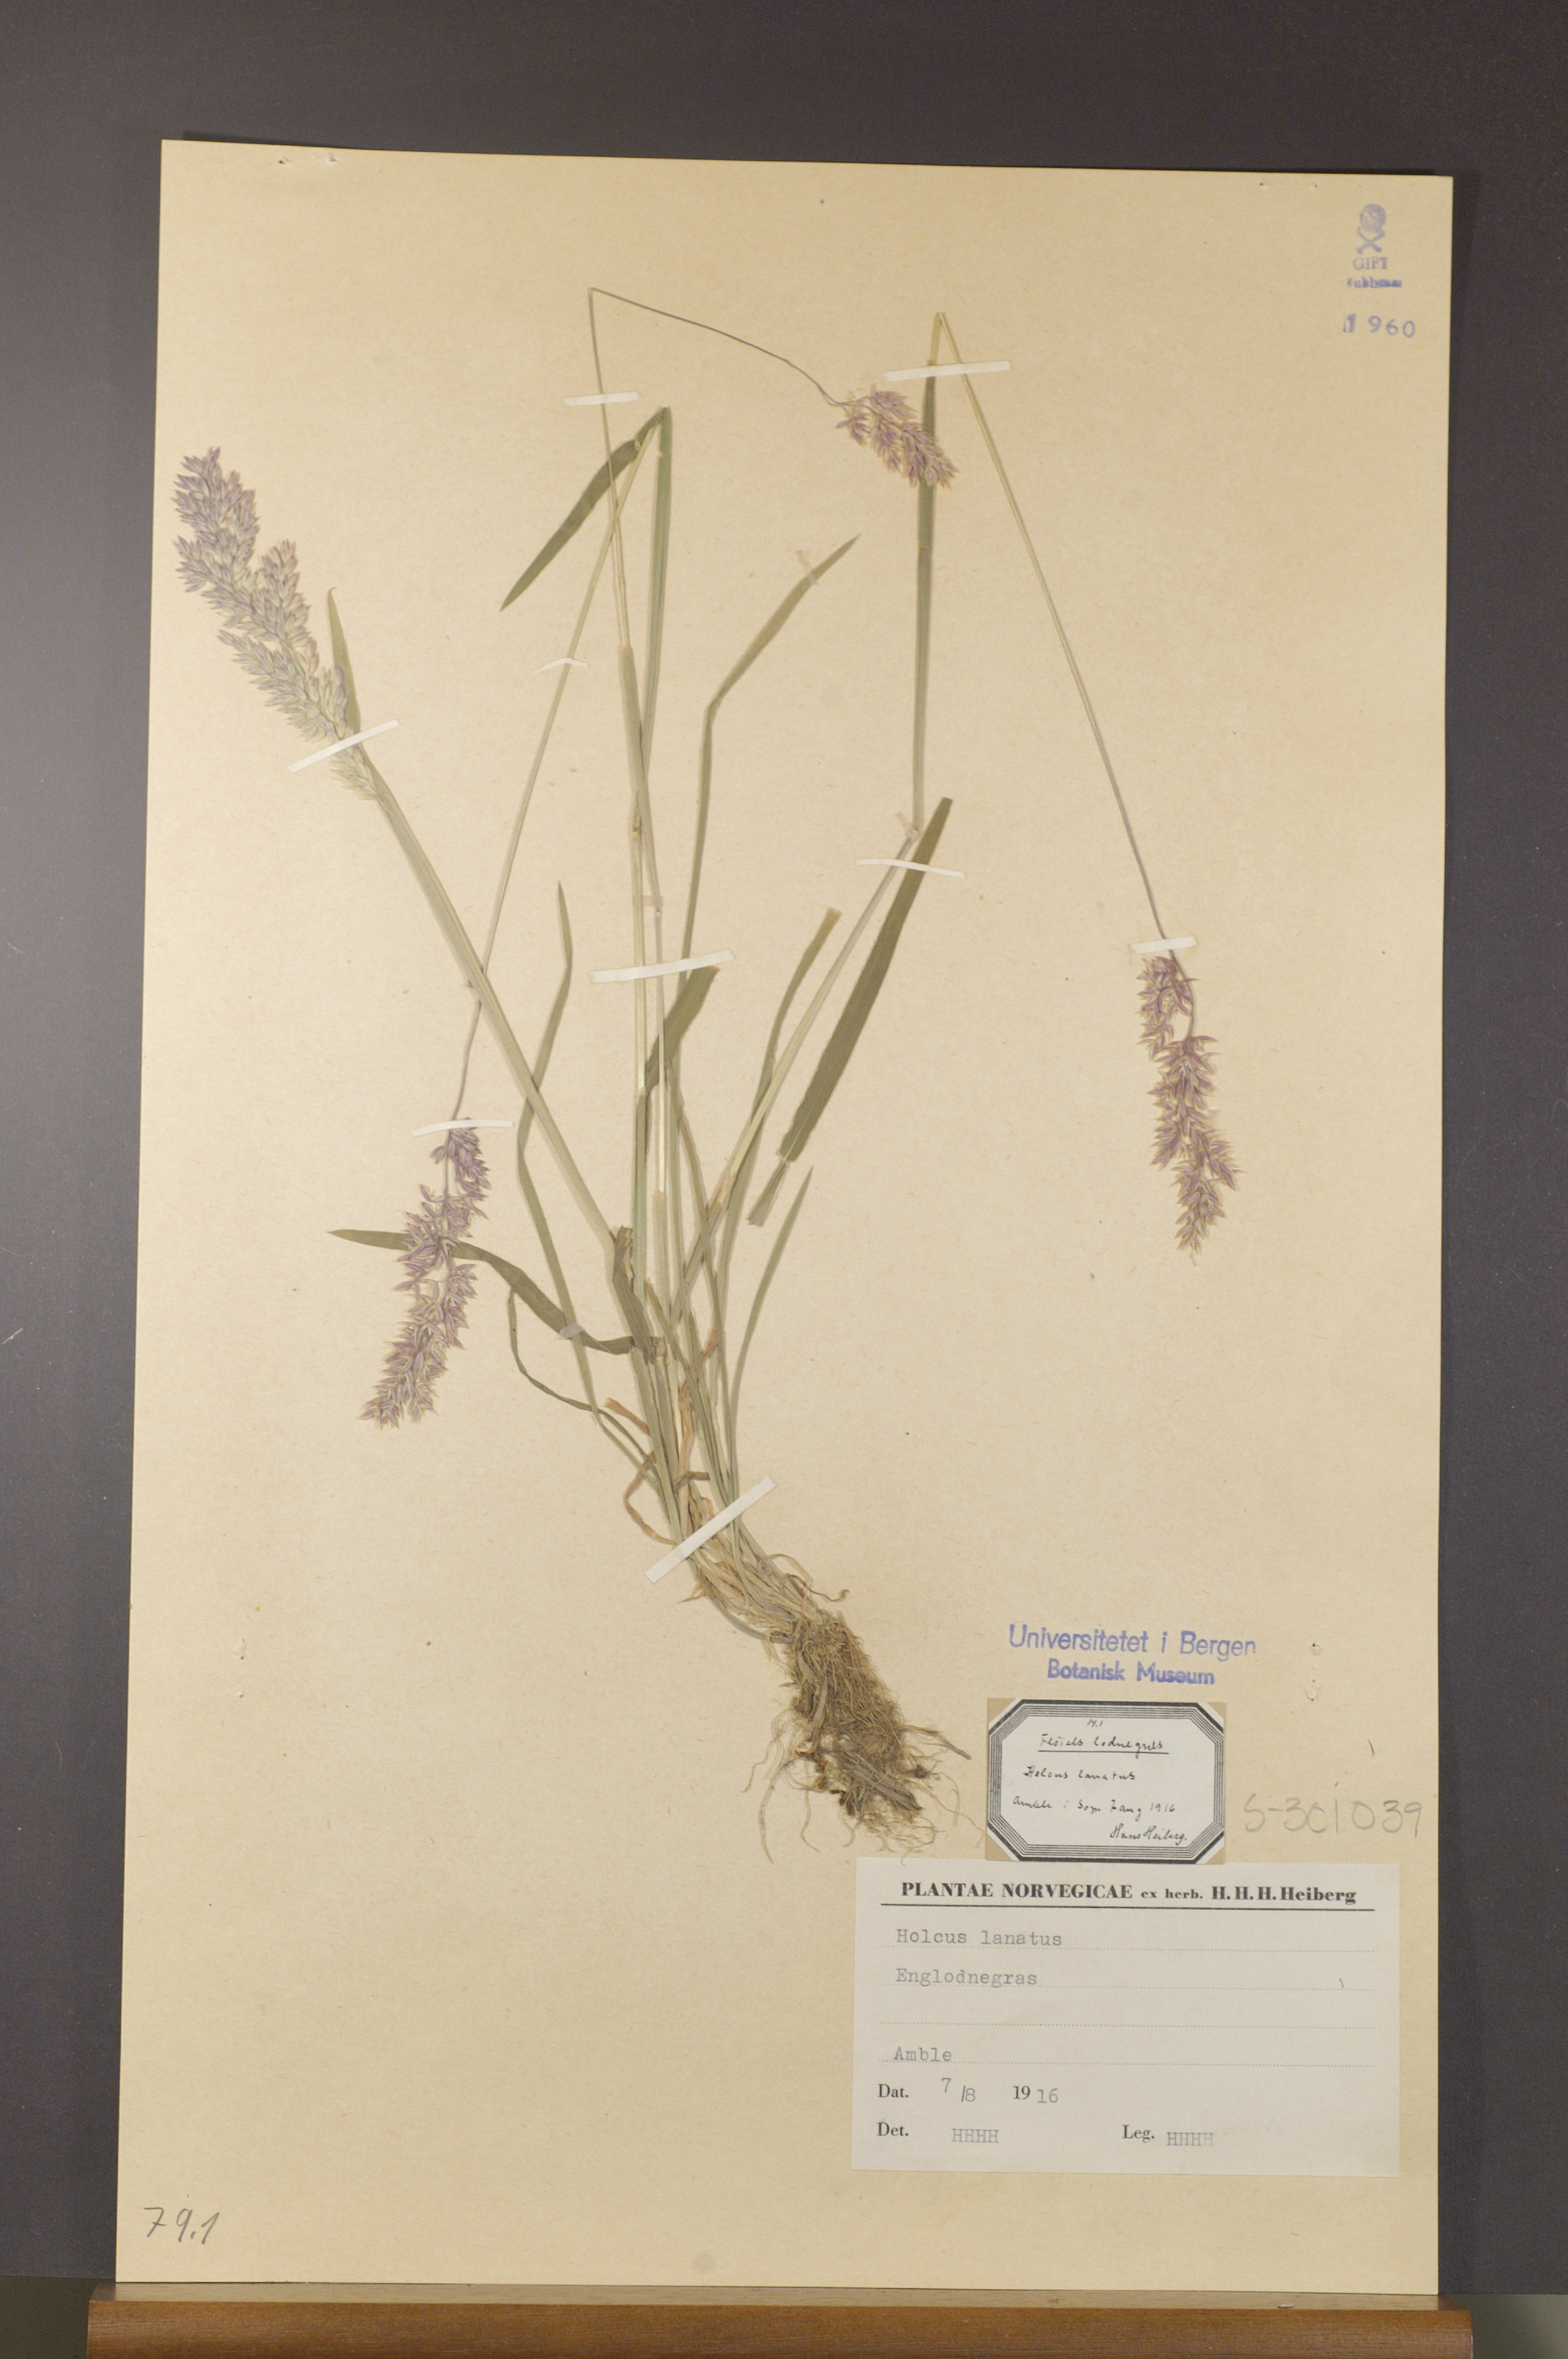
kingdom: Plantae
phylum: Tracheophyta
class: Liliopsida
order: Poales
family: Poaceae
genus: Holcus
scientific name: Holcus lanatus
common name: Yorkshire-fog
